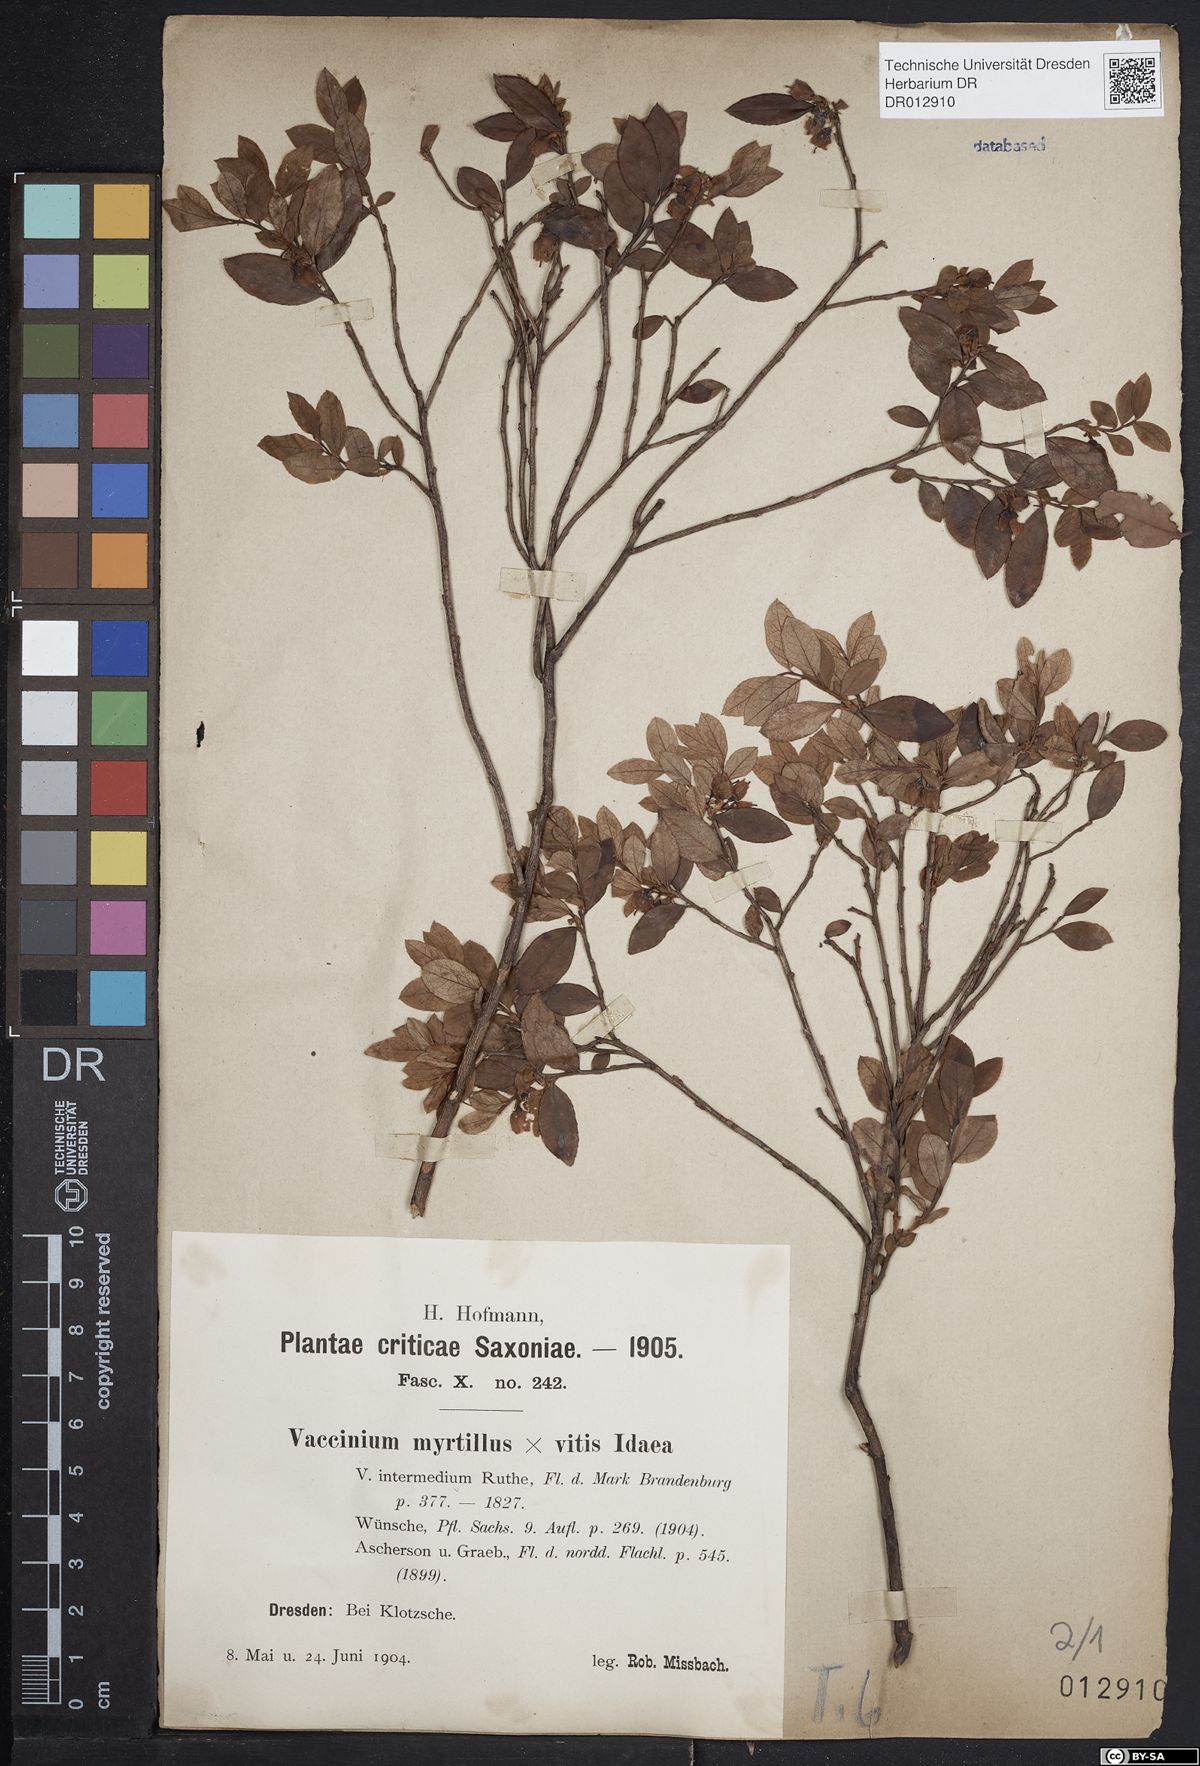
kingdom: Plantae
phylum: Tracheophyta
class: Magnoliopsida
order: Ericales
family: Ericaceae
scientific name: Ericaceae
